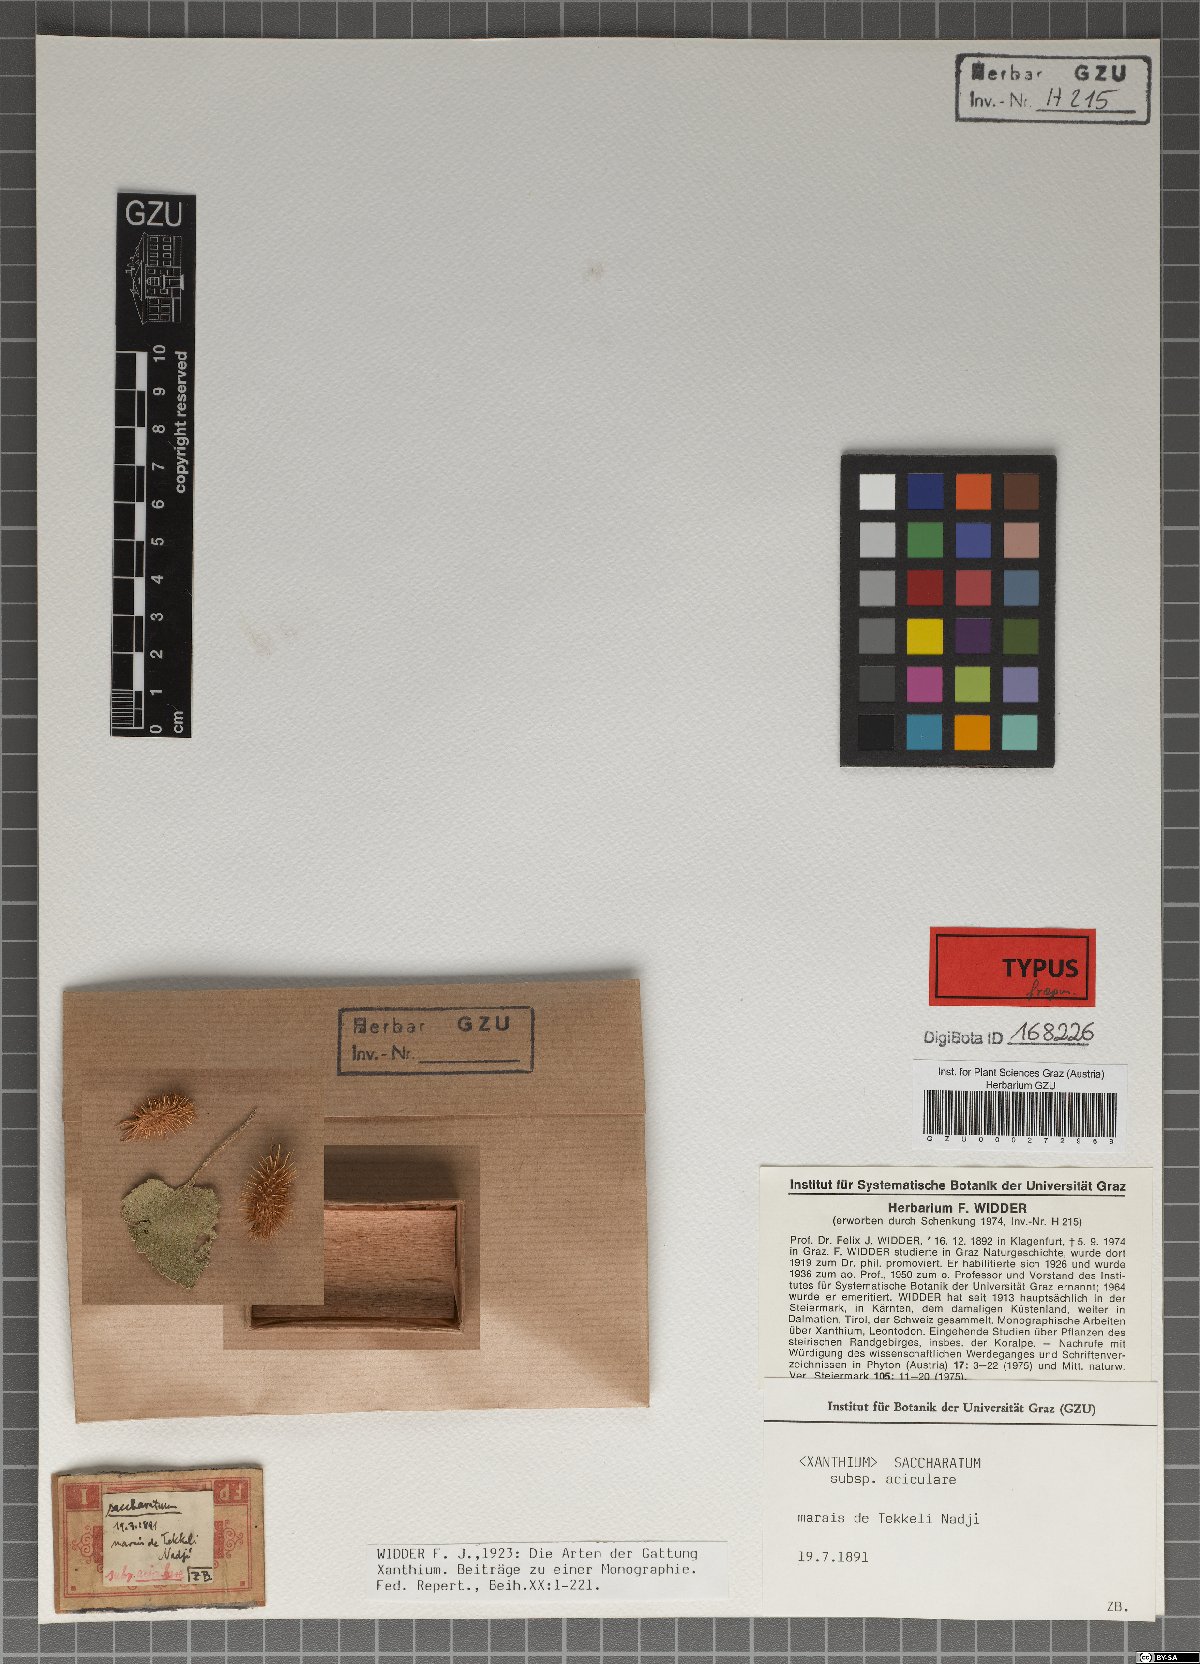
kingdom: Plantae
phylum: Tracheophyta
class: Magnoliopsida
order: Asterales
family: Asteraceae
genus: Xanthium
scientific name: Xanthium orientale
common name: Californian burr
